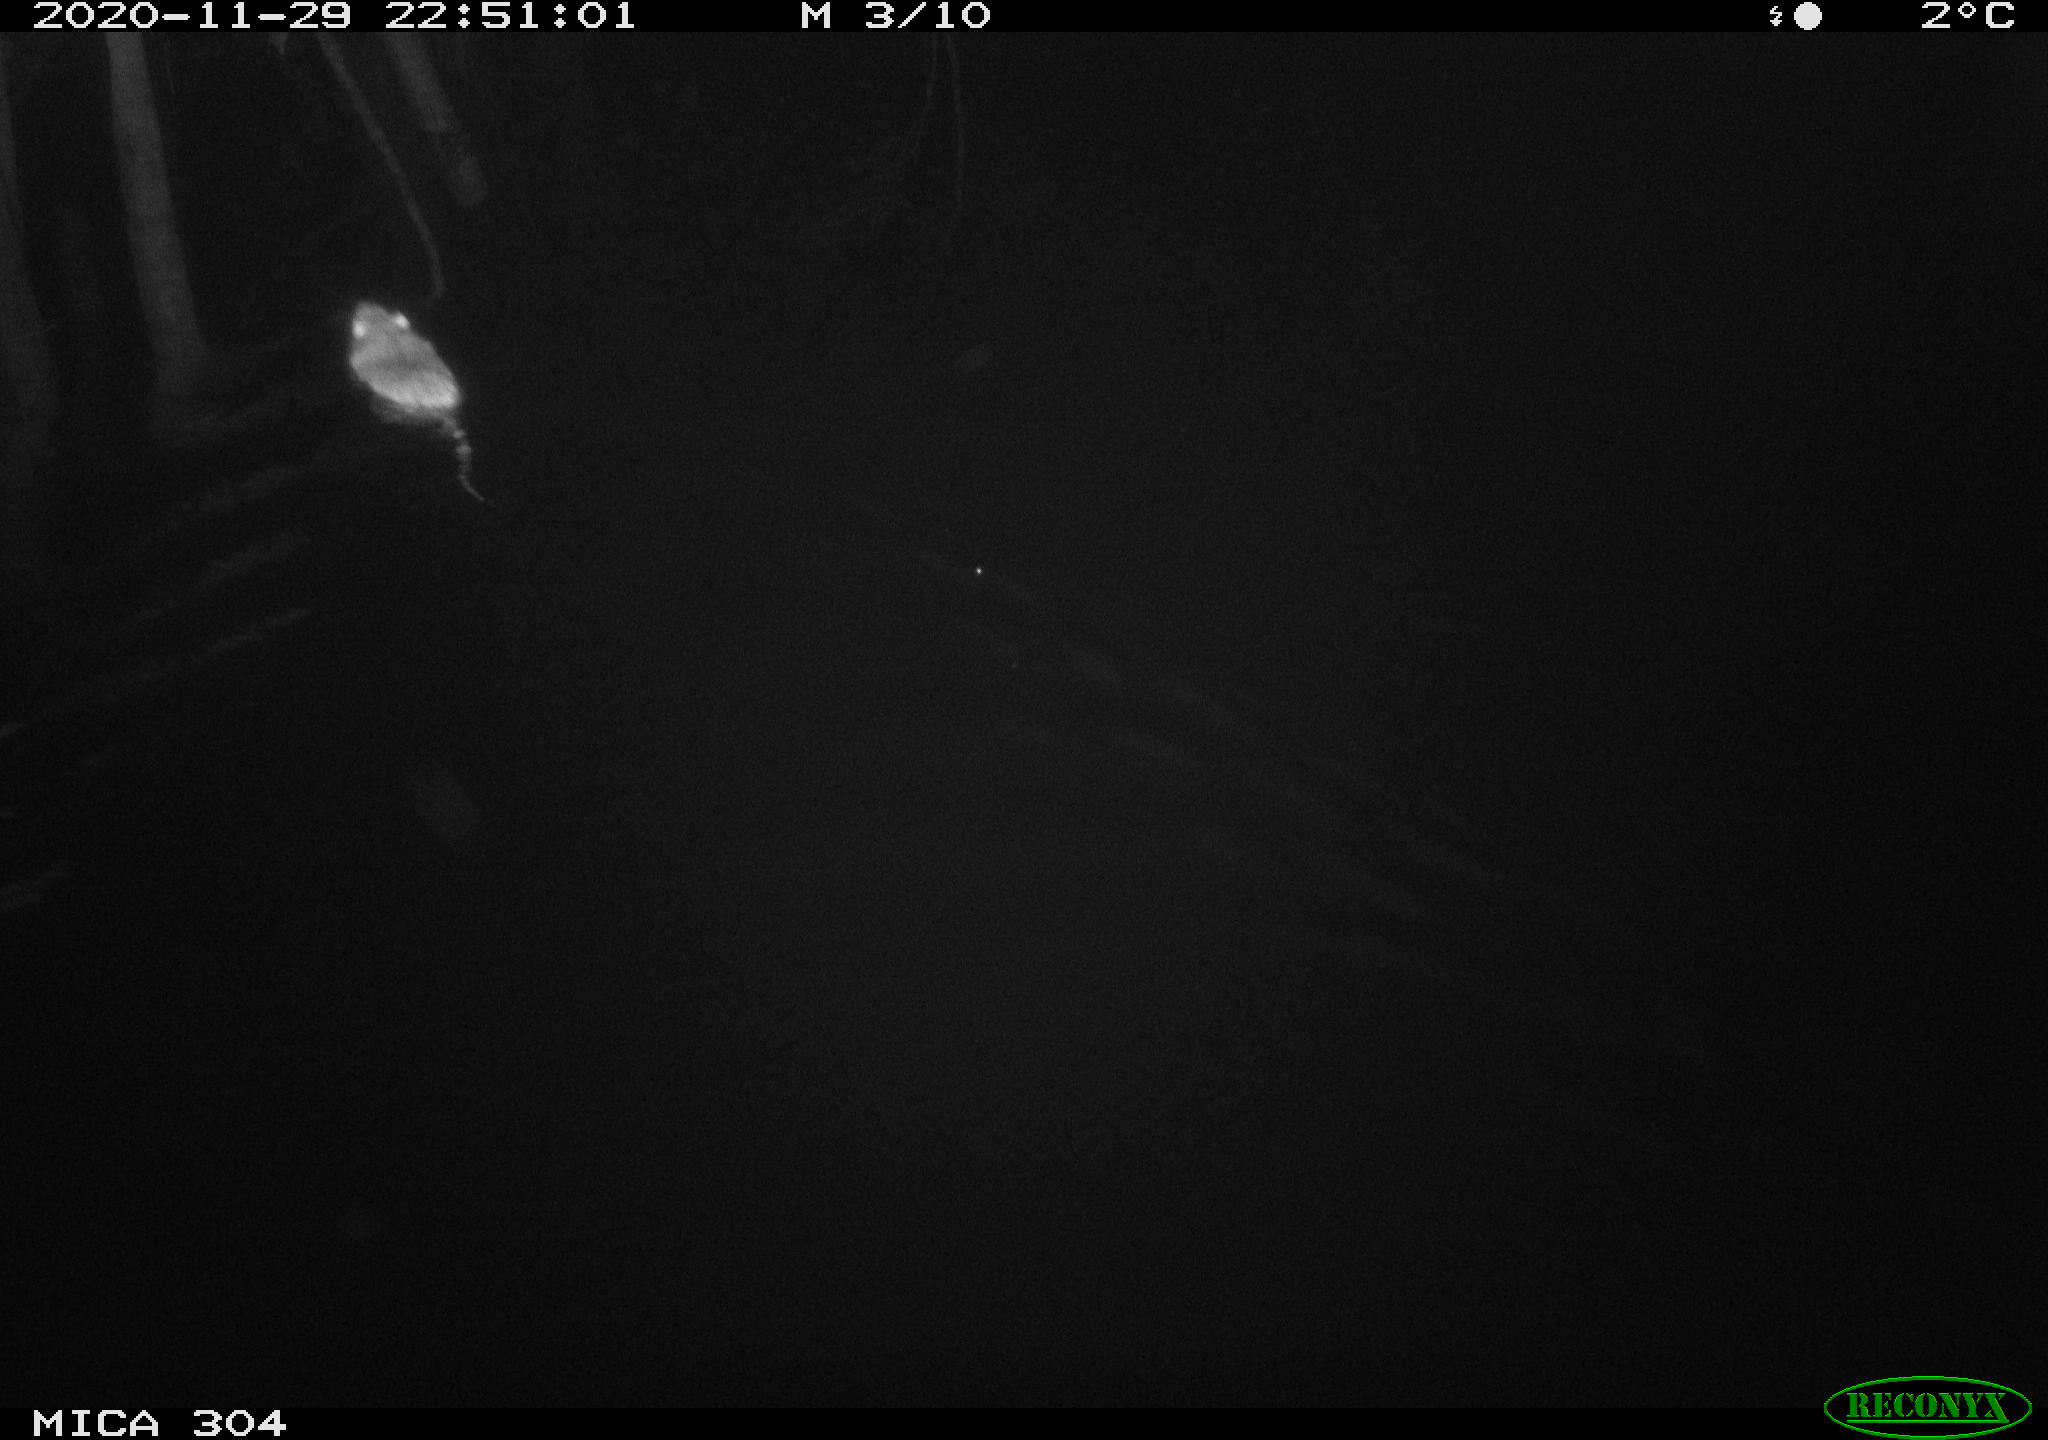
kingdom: Animalia
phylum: Chordata
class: Mammalia
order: Rodentia
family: Muridae
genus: Rattus
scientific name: Rattus norvegicus
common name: Brown rat
